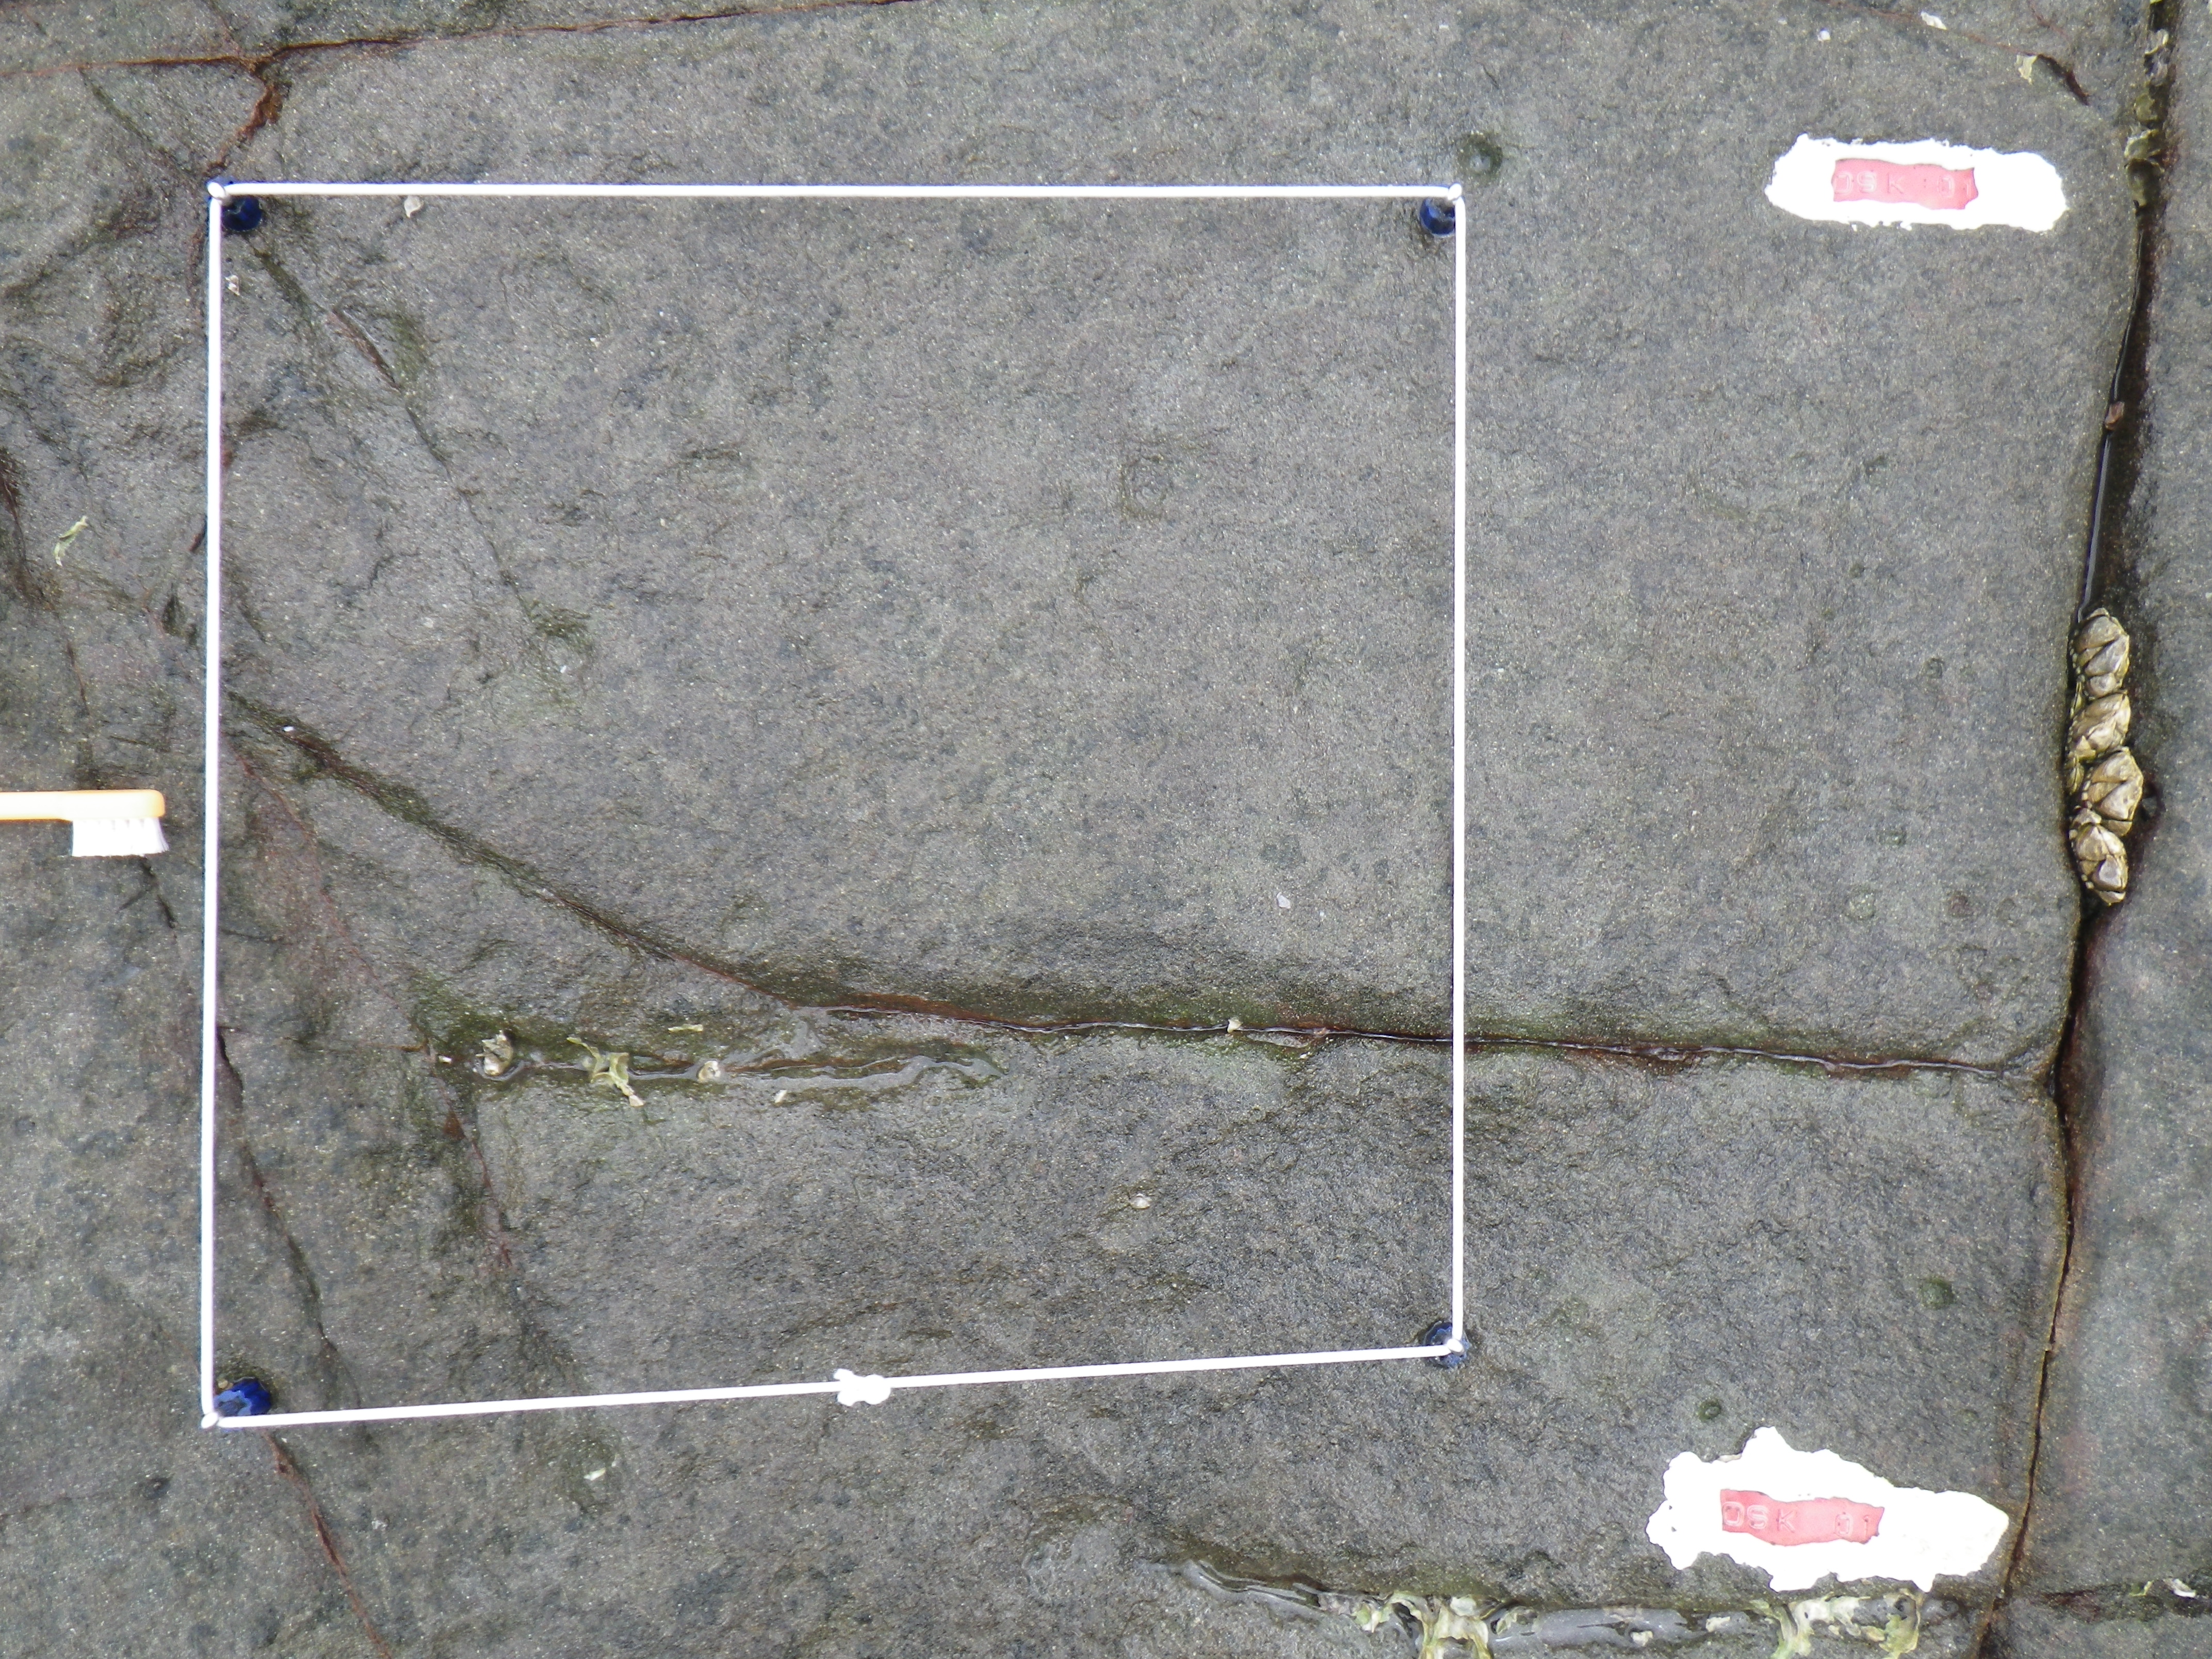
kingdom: Animalia
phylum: Arthropoda
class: Maxillopoda
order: Sessilia
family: Chthamalidae
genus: Chthamalus
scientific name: Chthamalus challengeri
